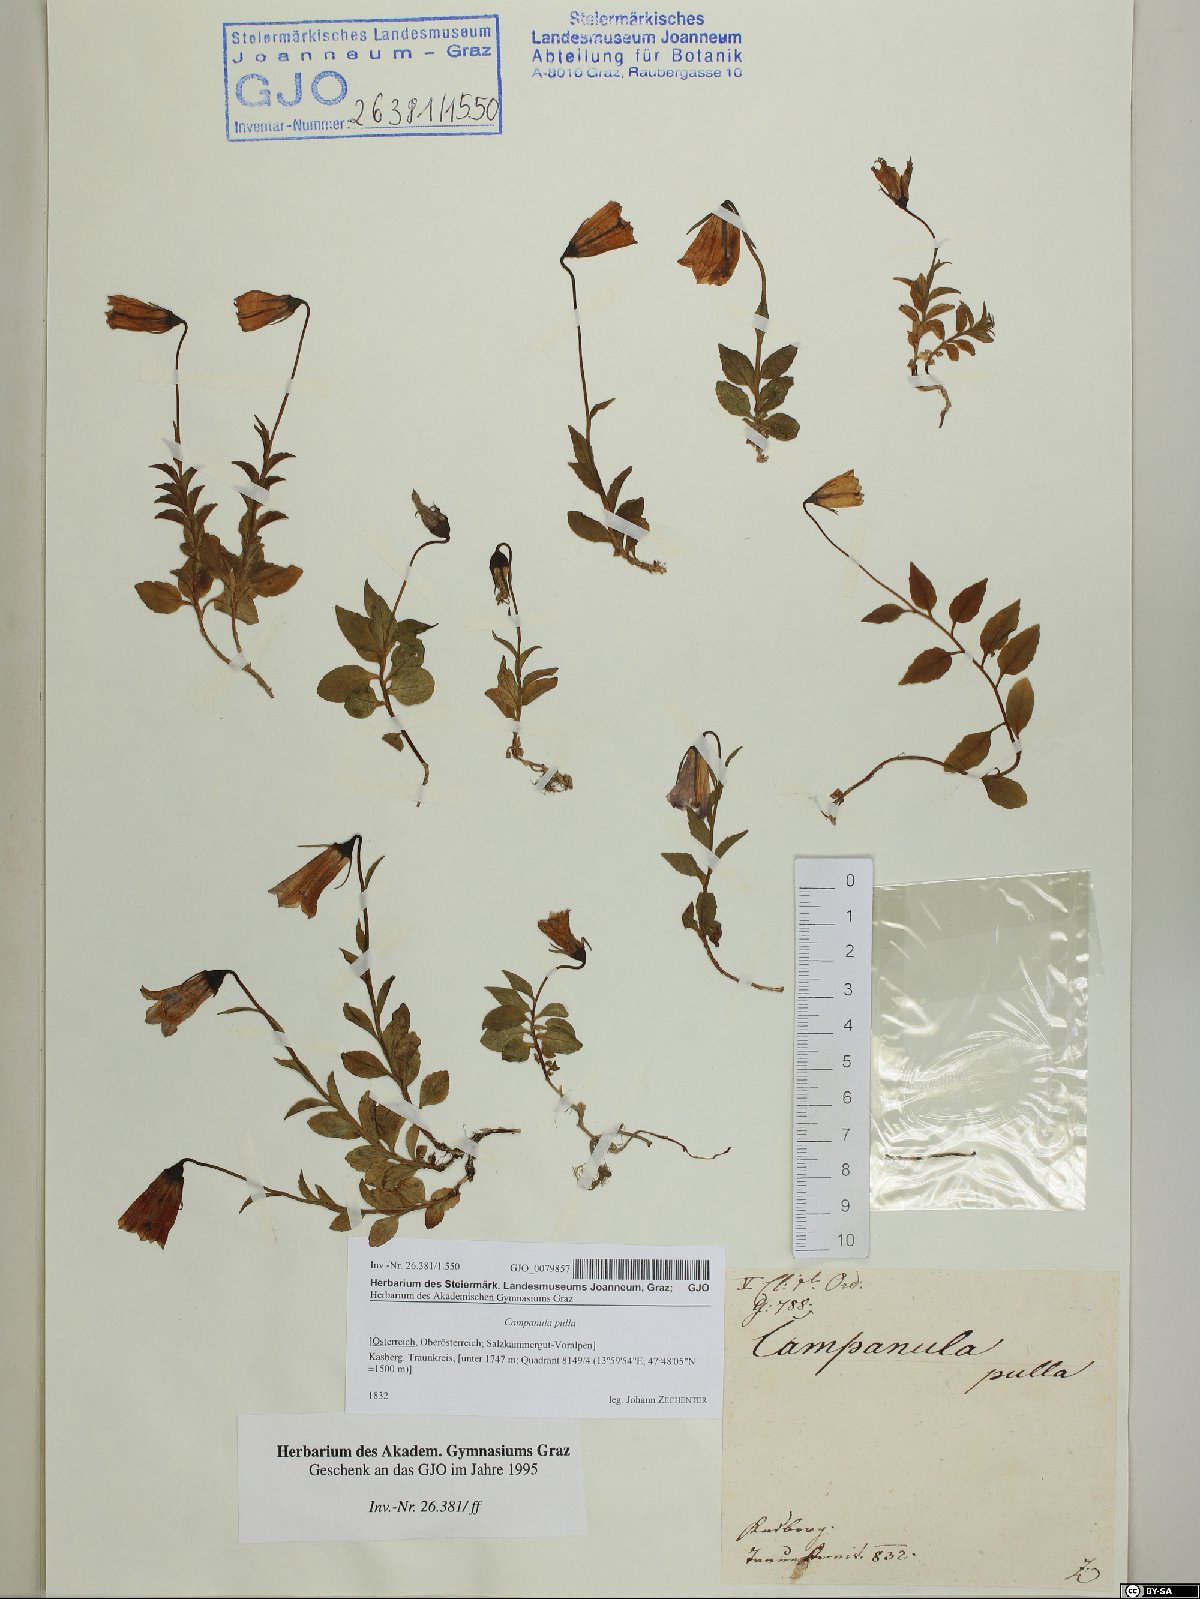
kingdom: Plantae
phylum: Tracheophyta
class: Magnoliopsida
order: Asterales
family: Campanulaceae
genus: Campanula
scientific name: Campanula pulla
